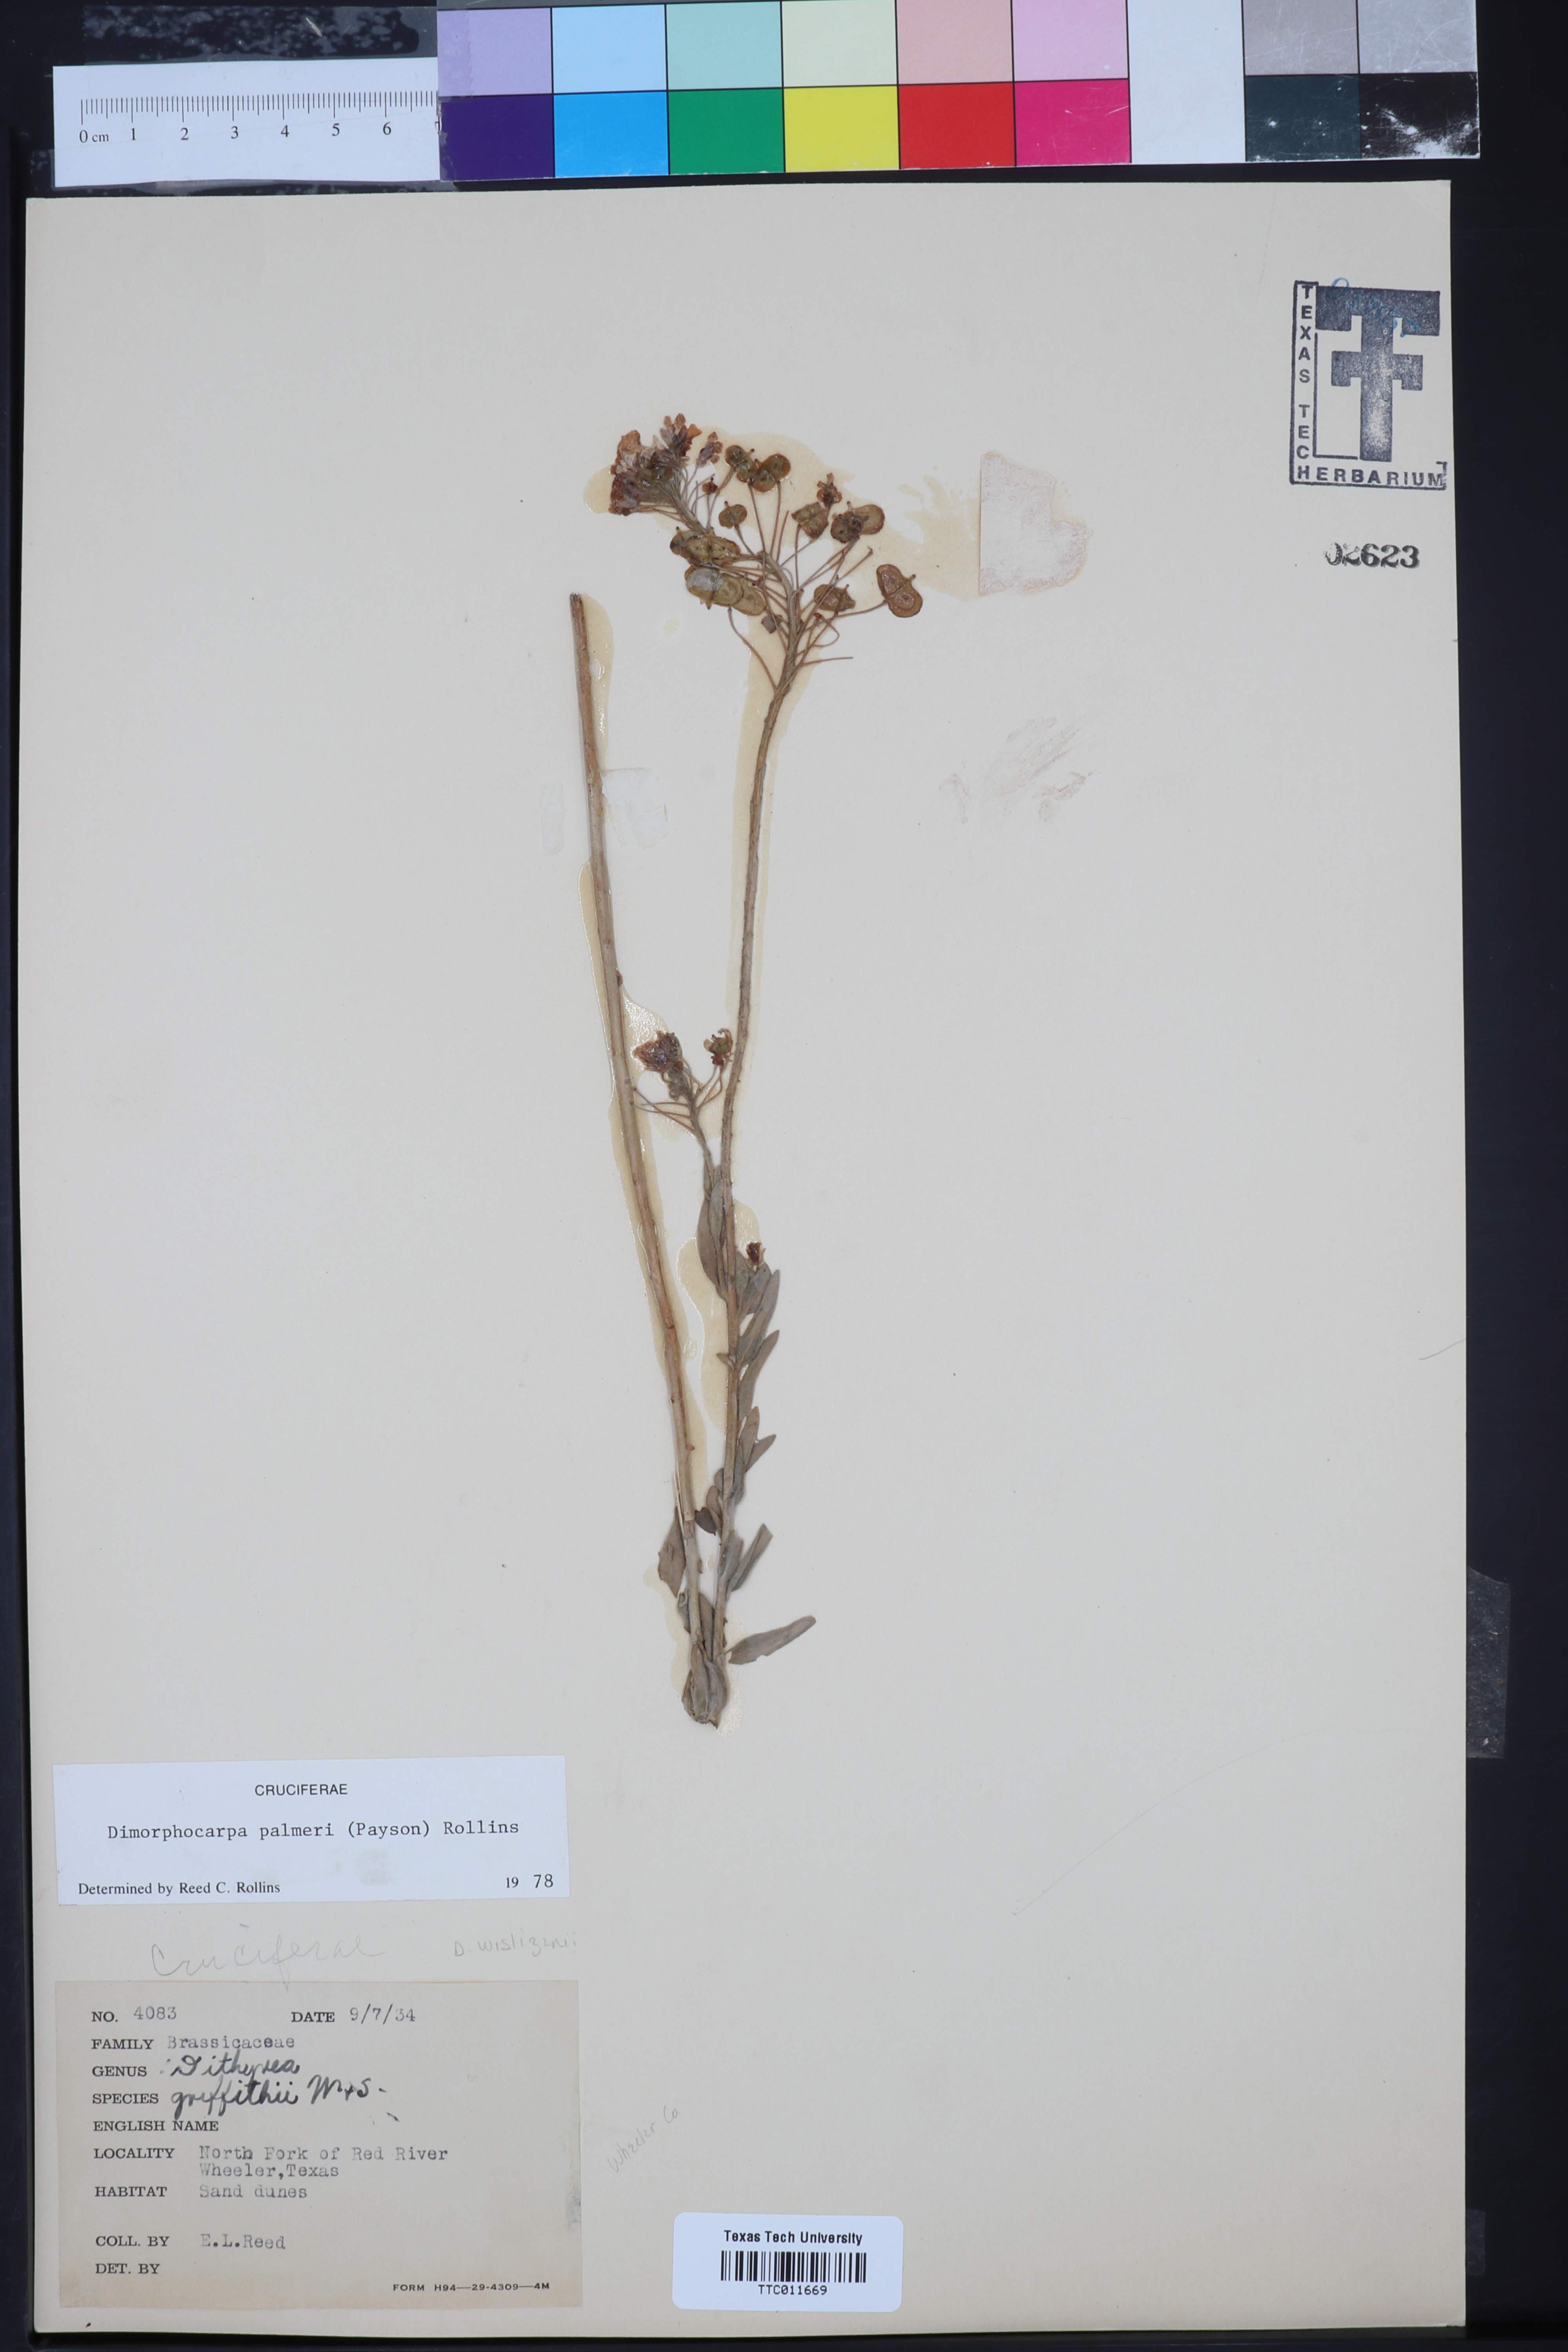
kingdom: Plantae
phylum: Tracheophyta
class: Magnoliopsida
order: Brassicales
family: Brassicaceae
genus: Dimorphocarpa
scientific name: Dimorphocarpa candicans
